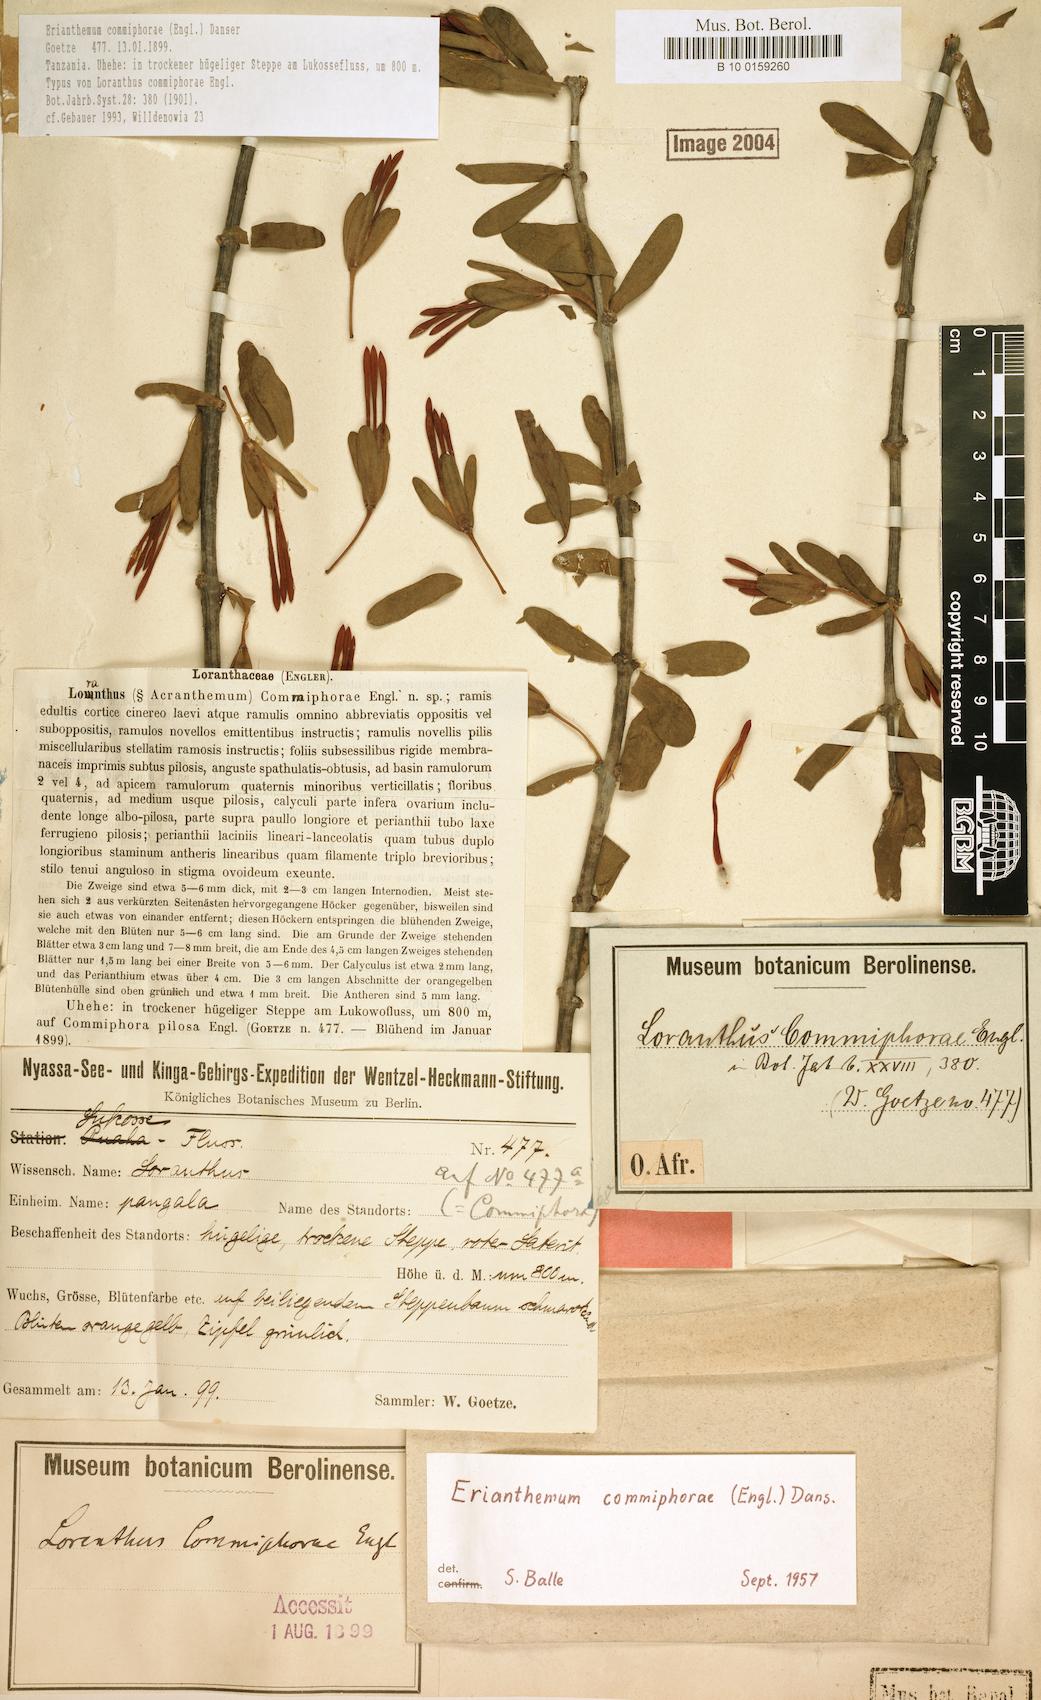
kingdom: Plantae
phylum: Tracheophyta
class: Magnoliopsida
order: Santalales
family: Loranthaceae
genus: Erianthemum
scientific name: Erianthemum commiphorae
